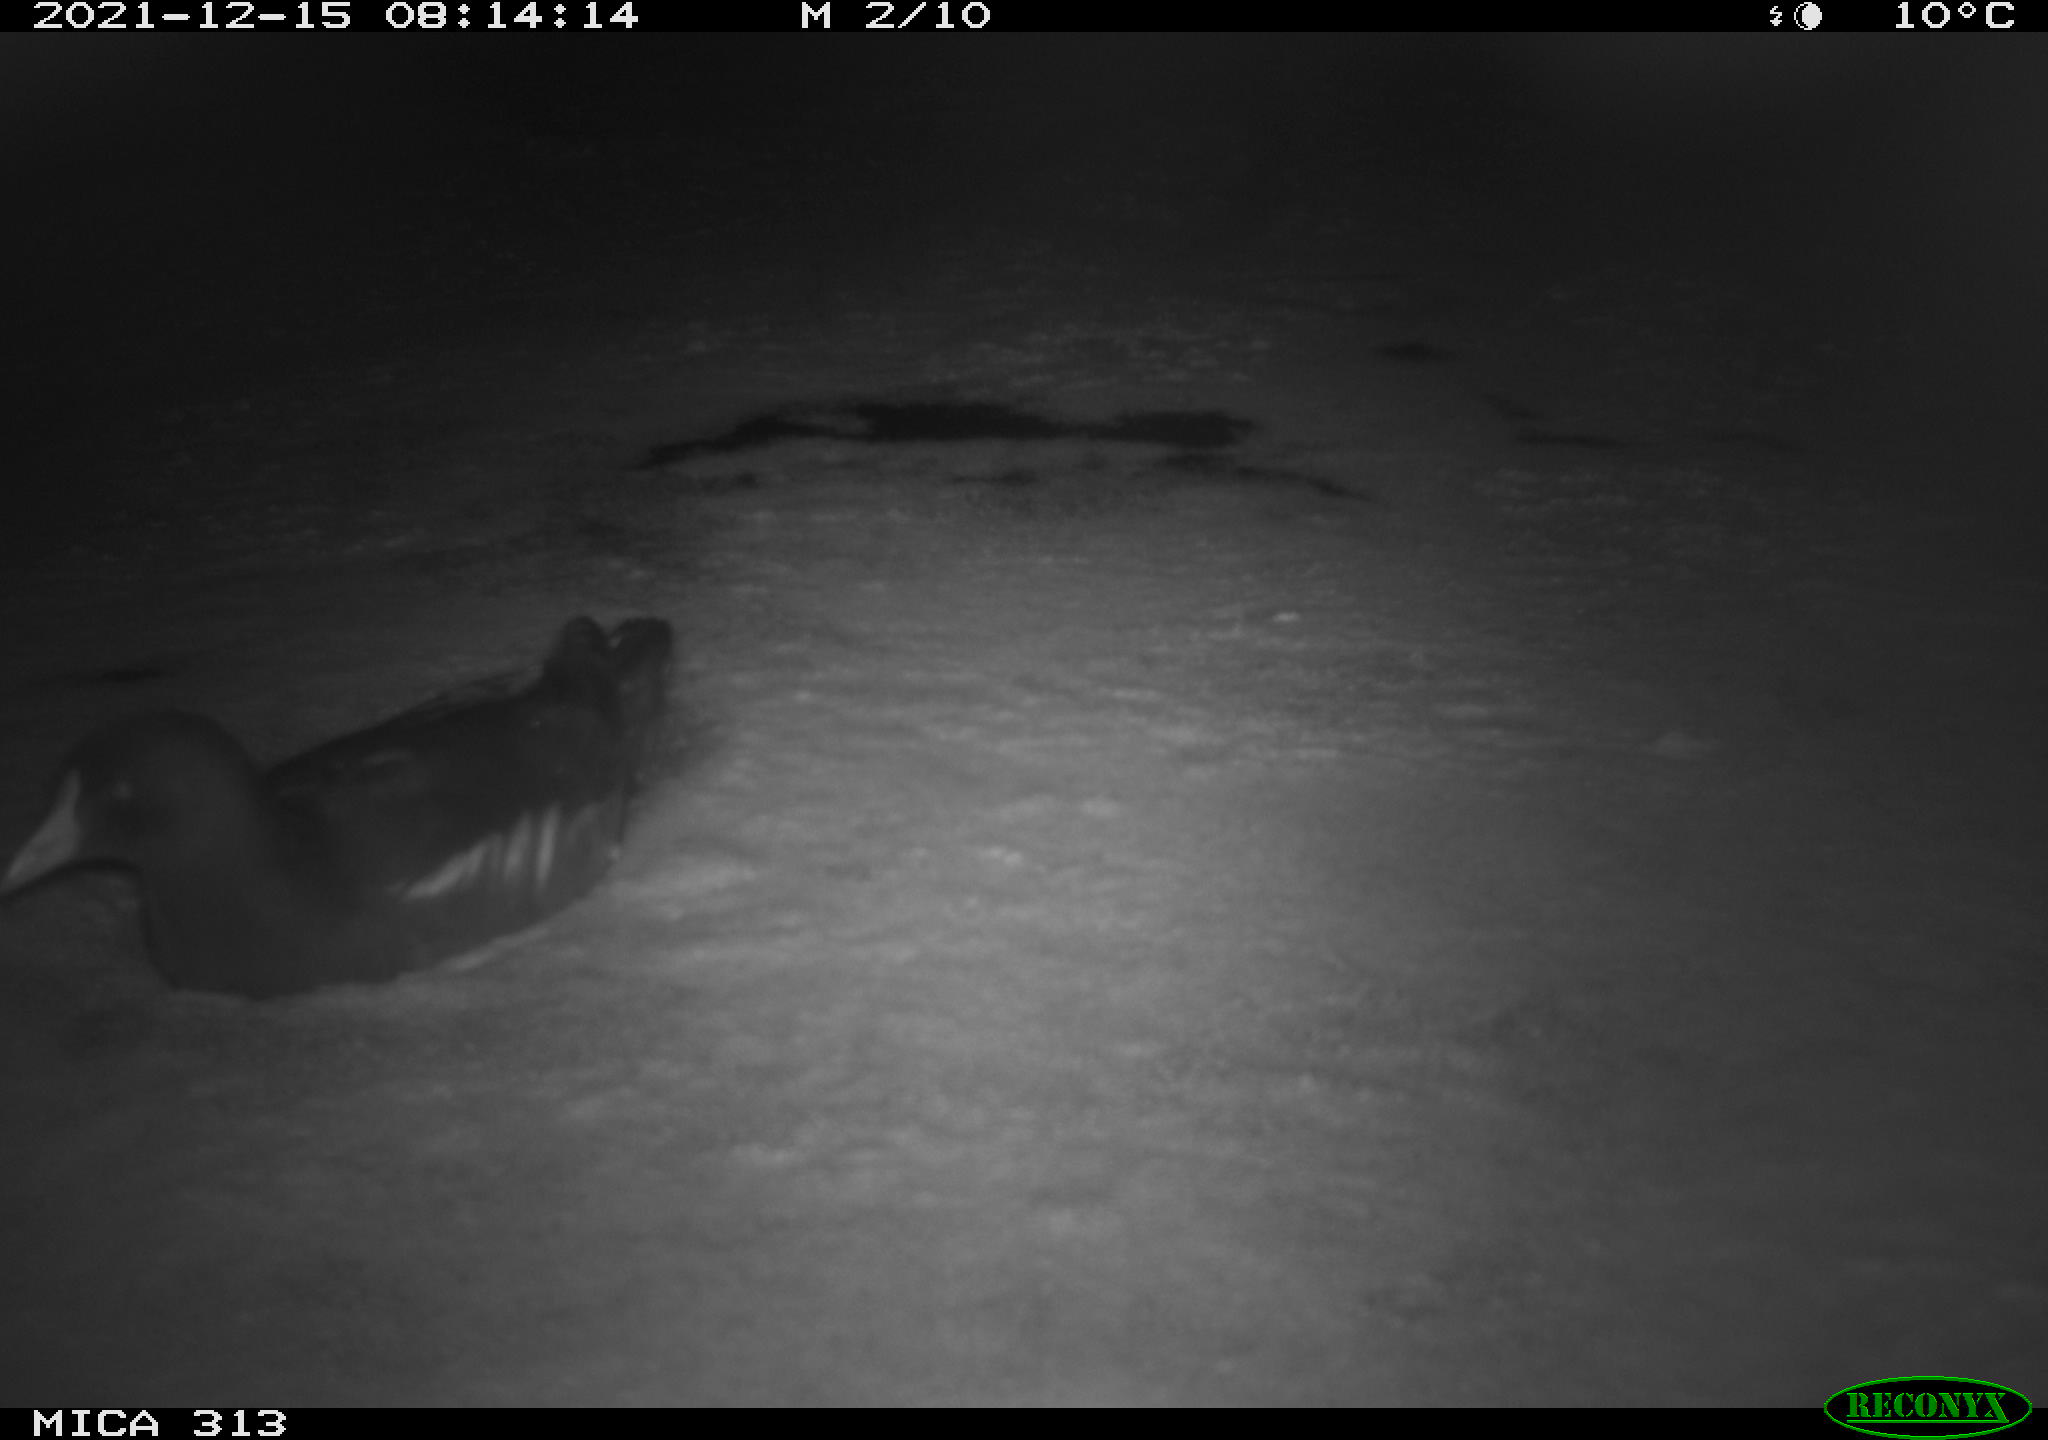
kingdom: Animalia
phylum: Chordata
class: Aves
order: Gruiformes
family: Rallidae
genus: Gallinula
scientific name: Gallinula chloropus
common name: Common moorhen
